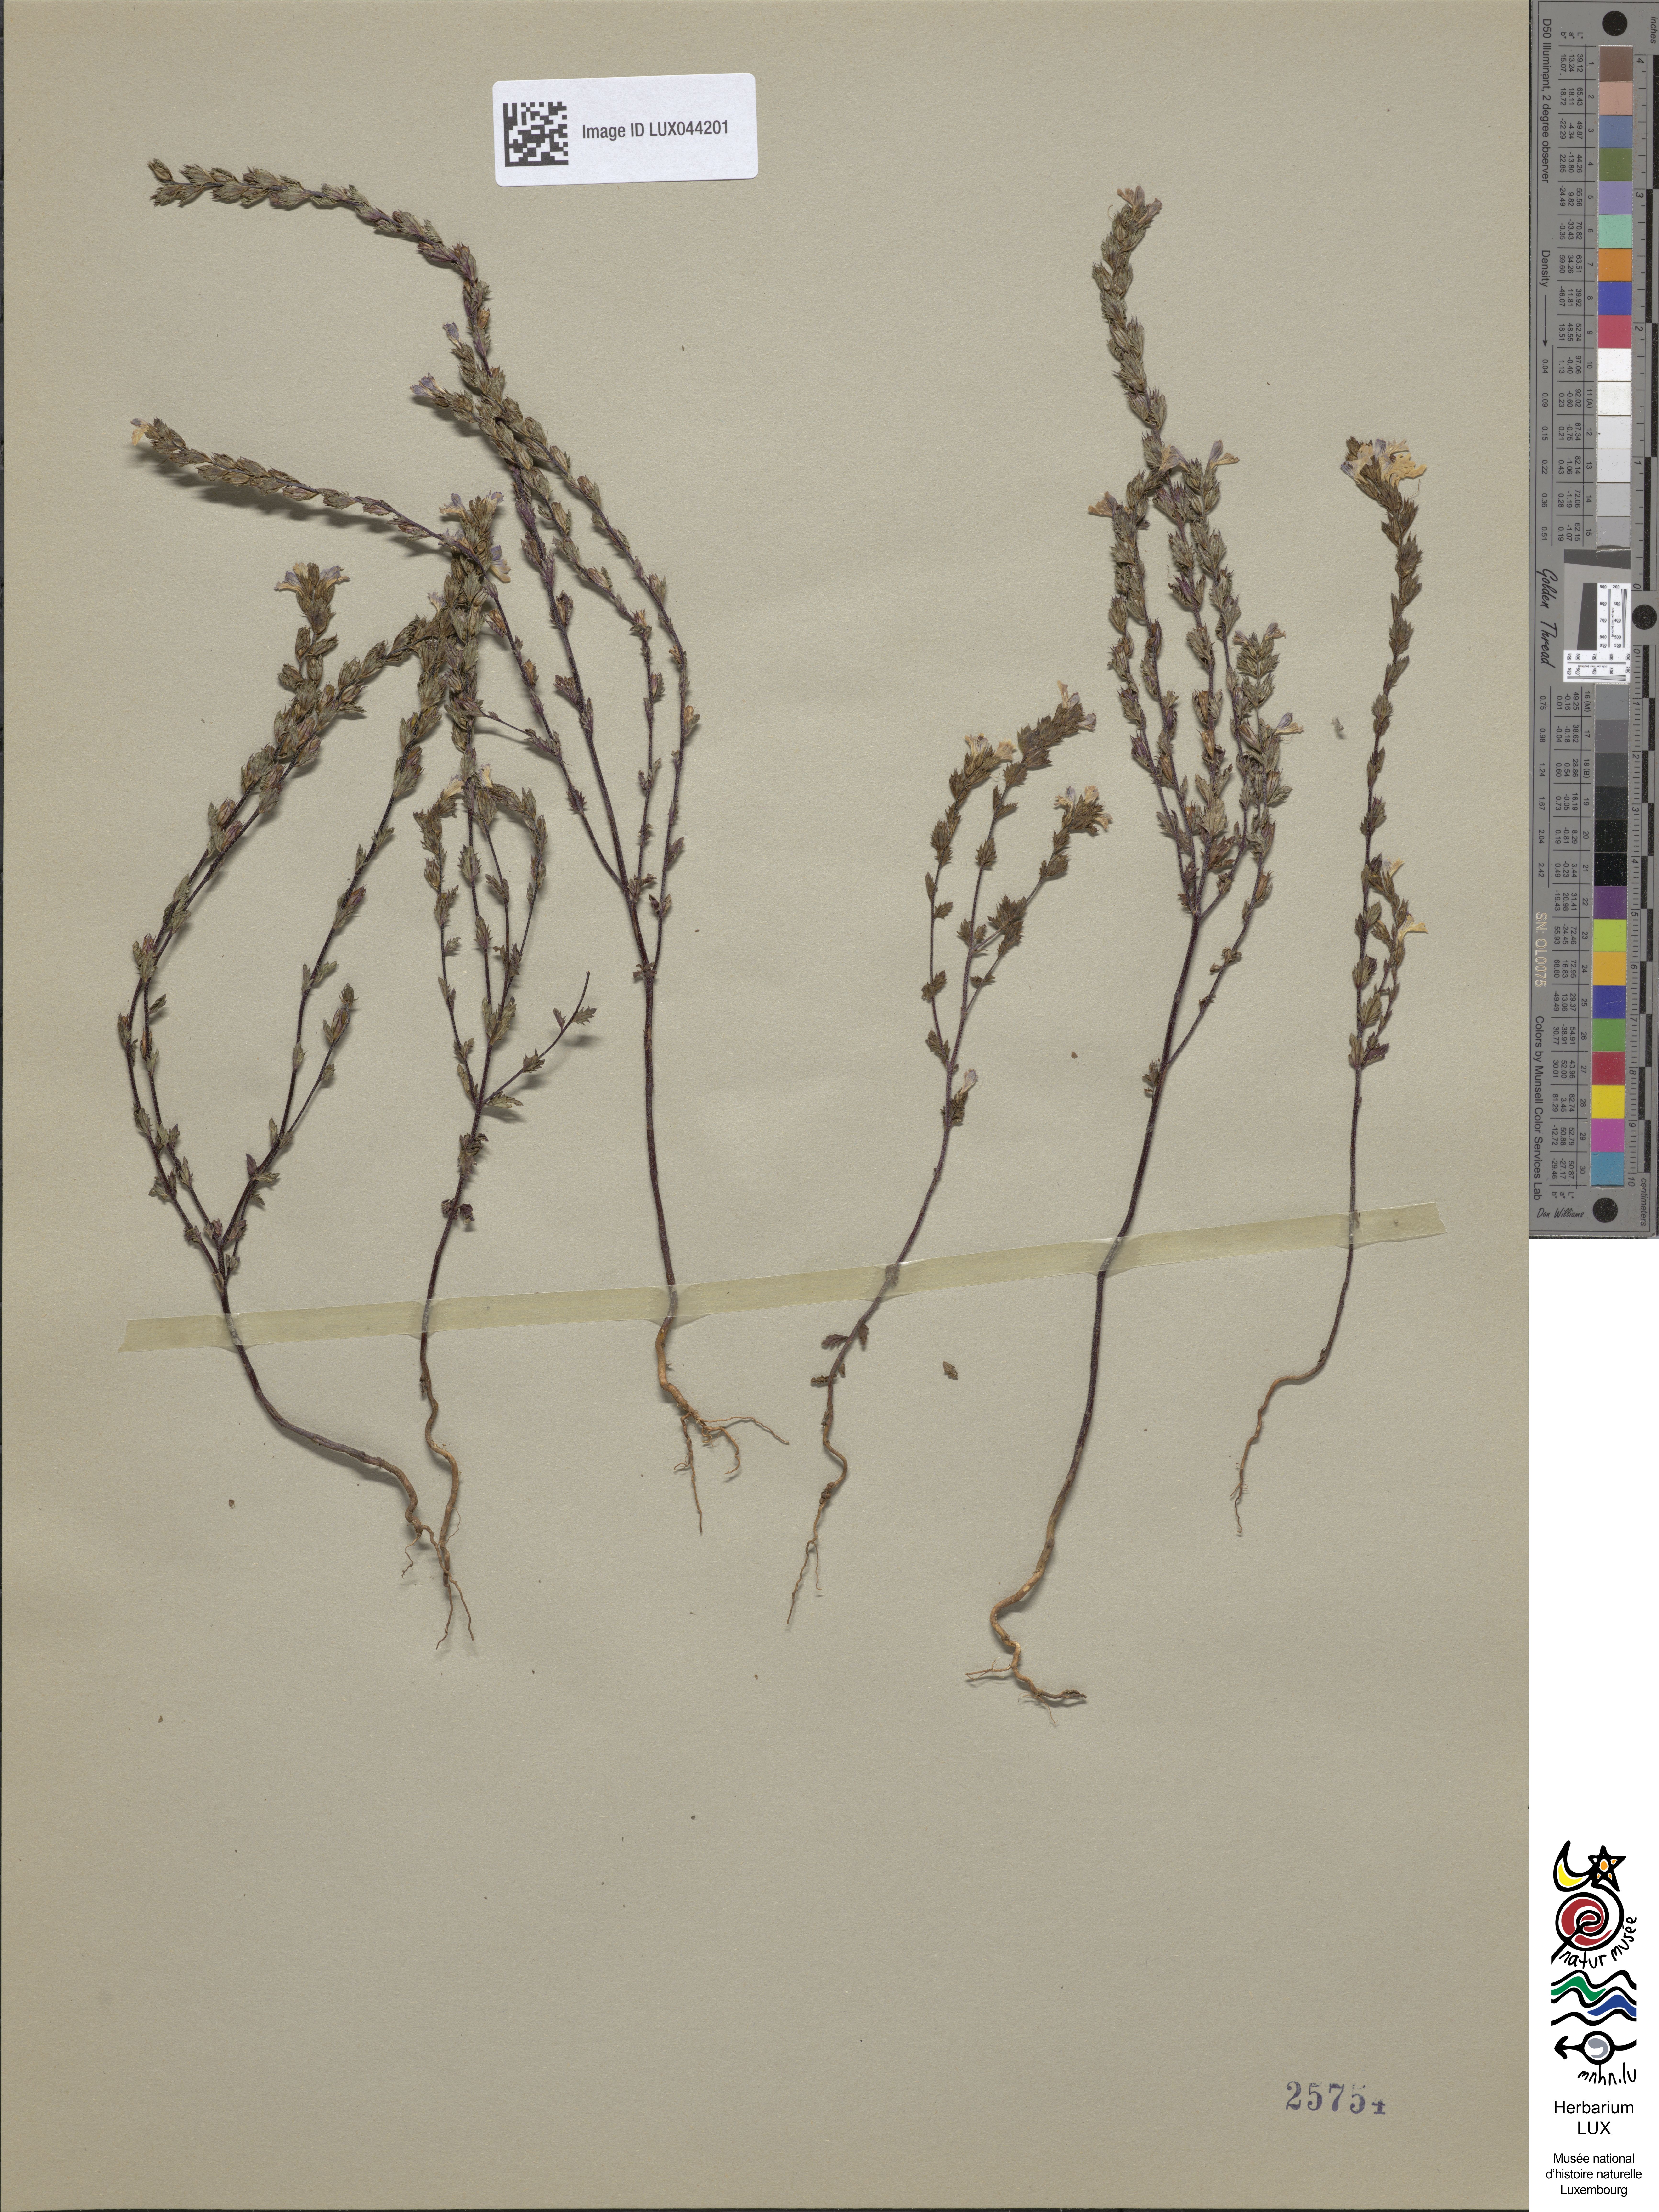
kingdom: Plantae
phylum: Tracheophyta
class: Magnoliopsida
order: Lamiales
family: Orobanchaceae
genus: Euphrasia
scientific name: Euphrasia stricta
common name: Drug eyebright
